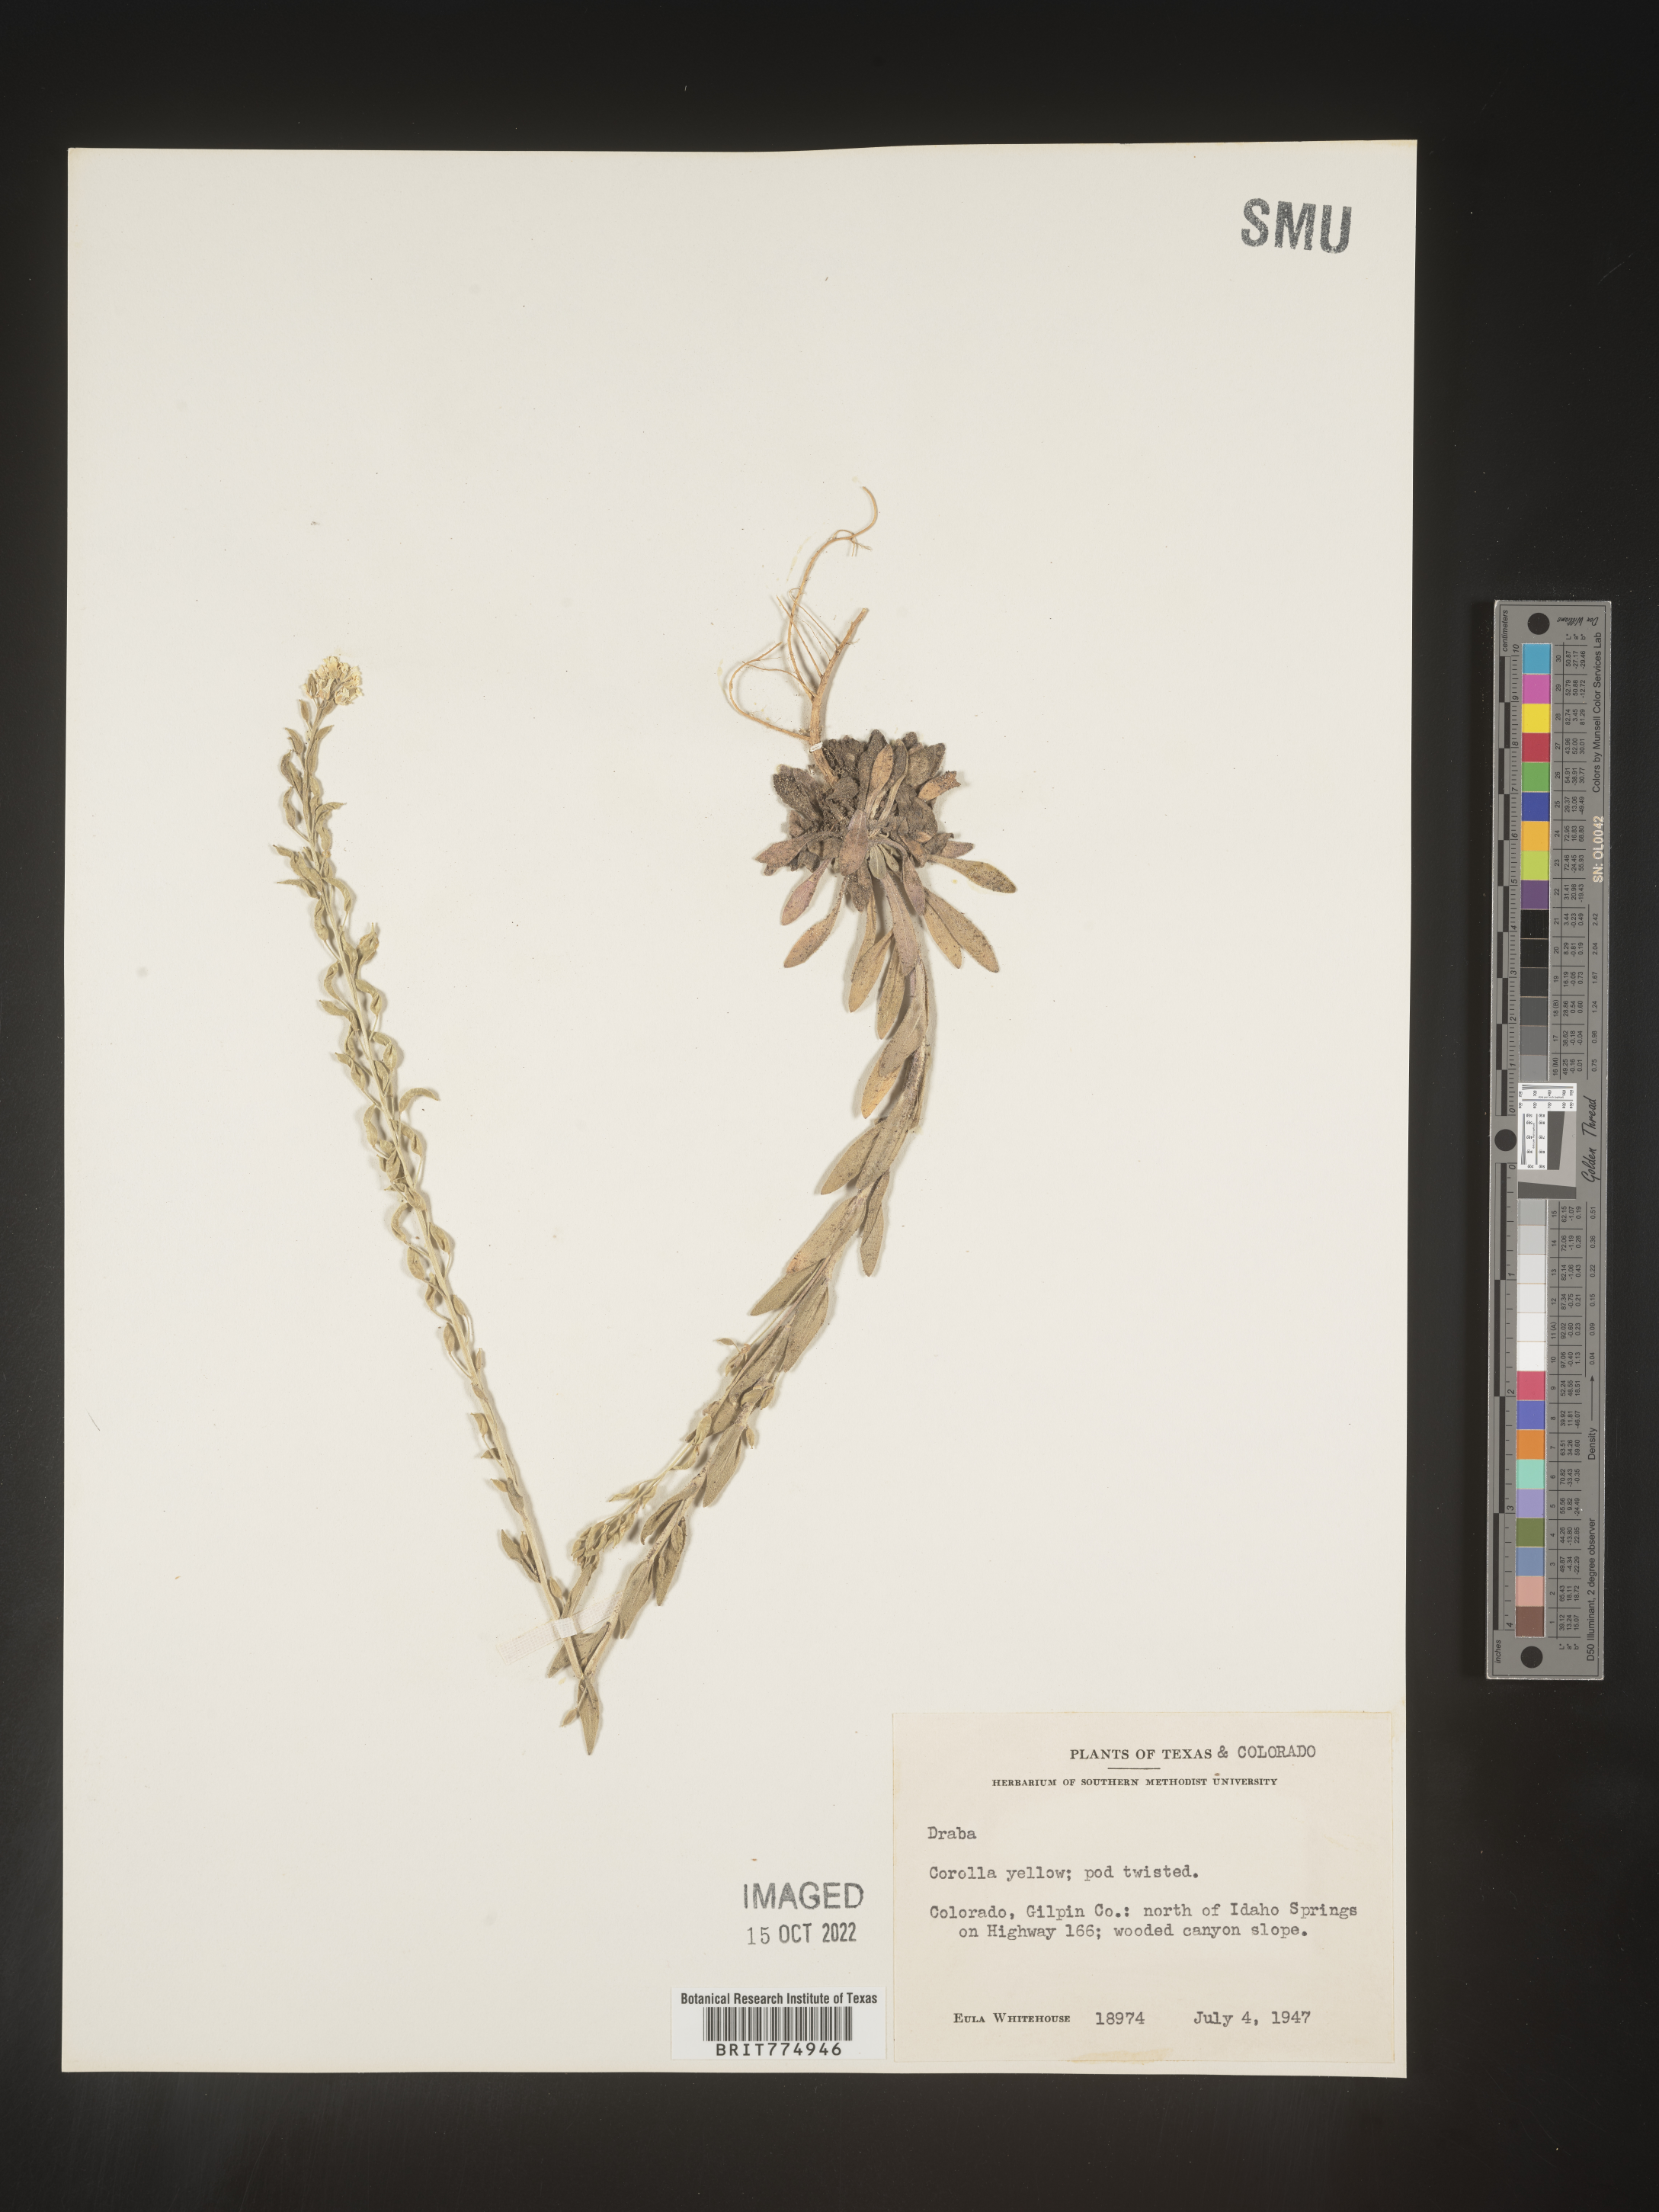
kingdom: Plantae
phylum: Tracheophyta
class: Magnoliopsida
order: Brassicales
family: Brassicaceae
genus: Draba
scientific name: Draba
